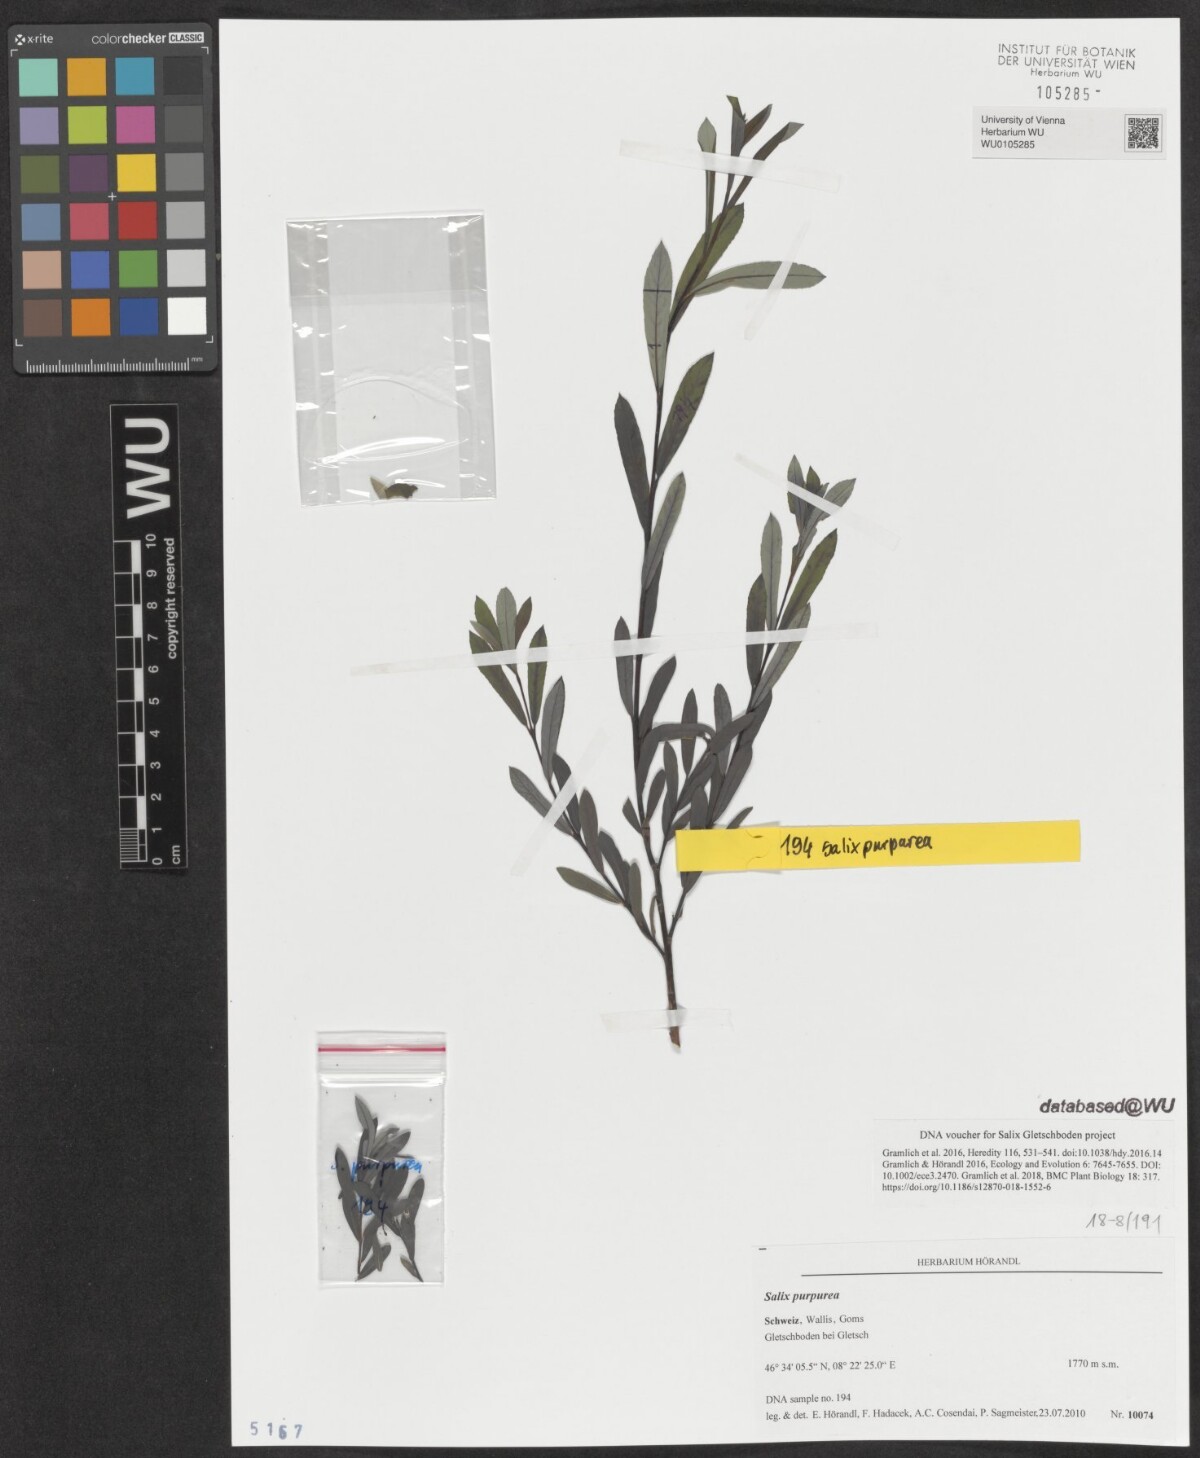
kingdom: Plantae
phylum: Tracheophyta
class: Magnoliopsida
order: Malpighiales
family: Salicaceae
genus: Salix
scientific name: Salix purpurea
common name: Purple willow
